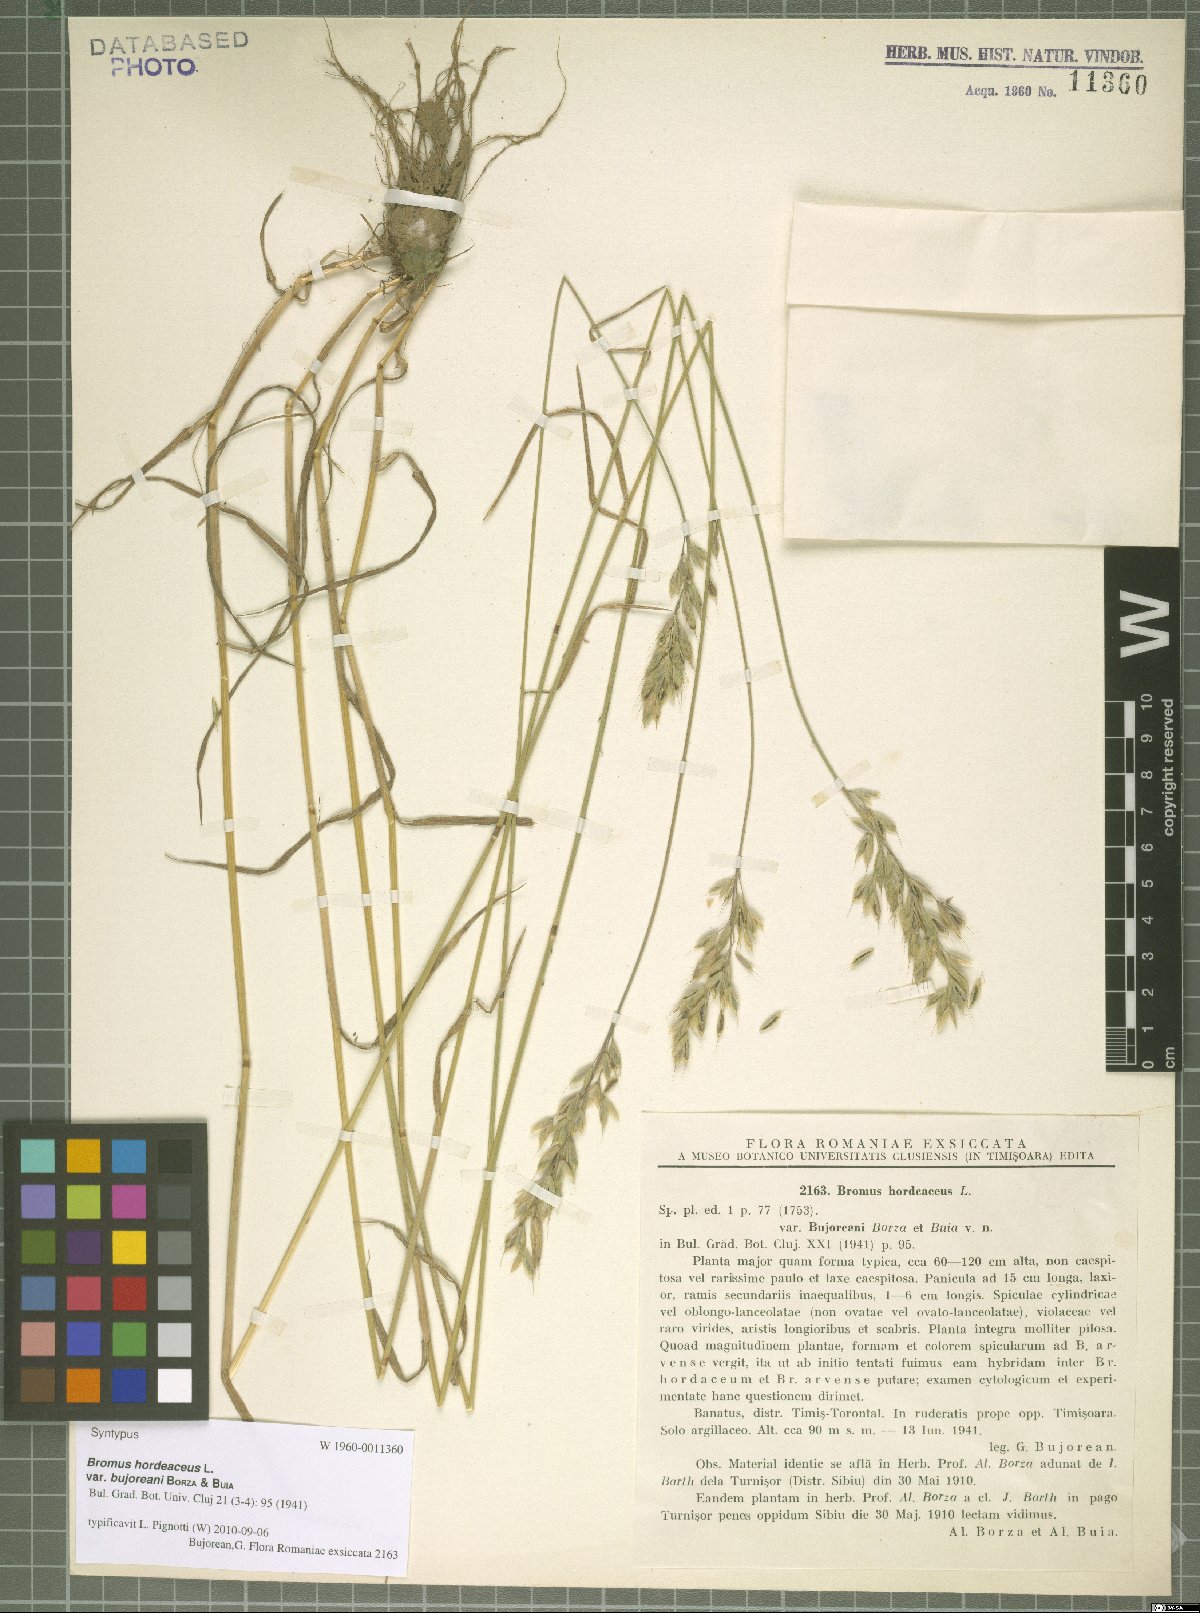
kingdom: Plantae
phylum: Tracheophyta
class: Liliopsida
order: Poales
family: Poaceae
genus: Bromus
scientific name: Bromus hordeaceus
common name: Soft brome
